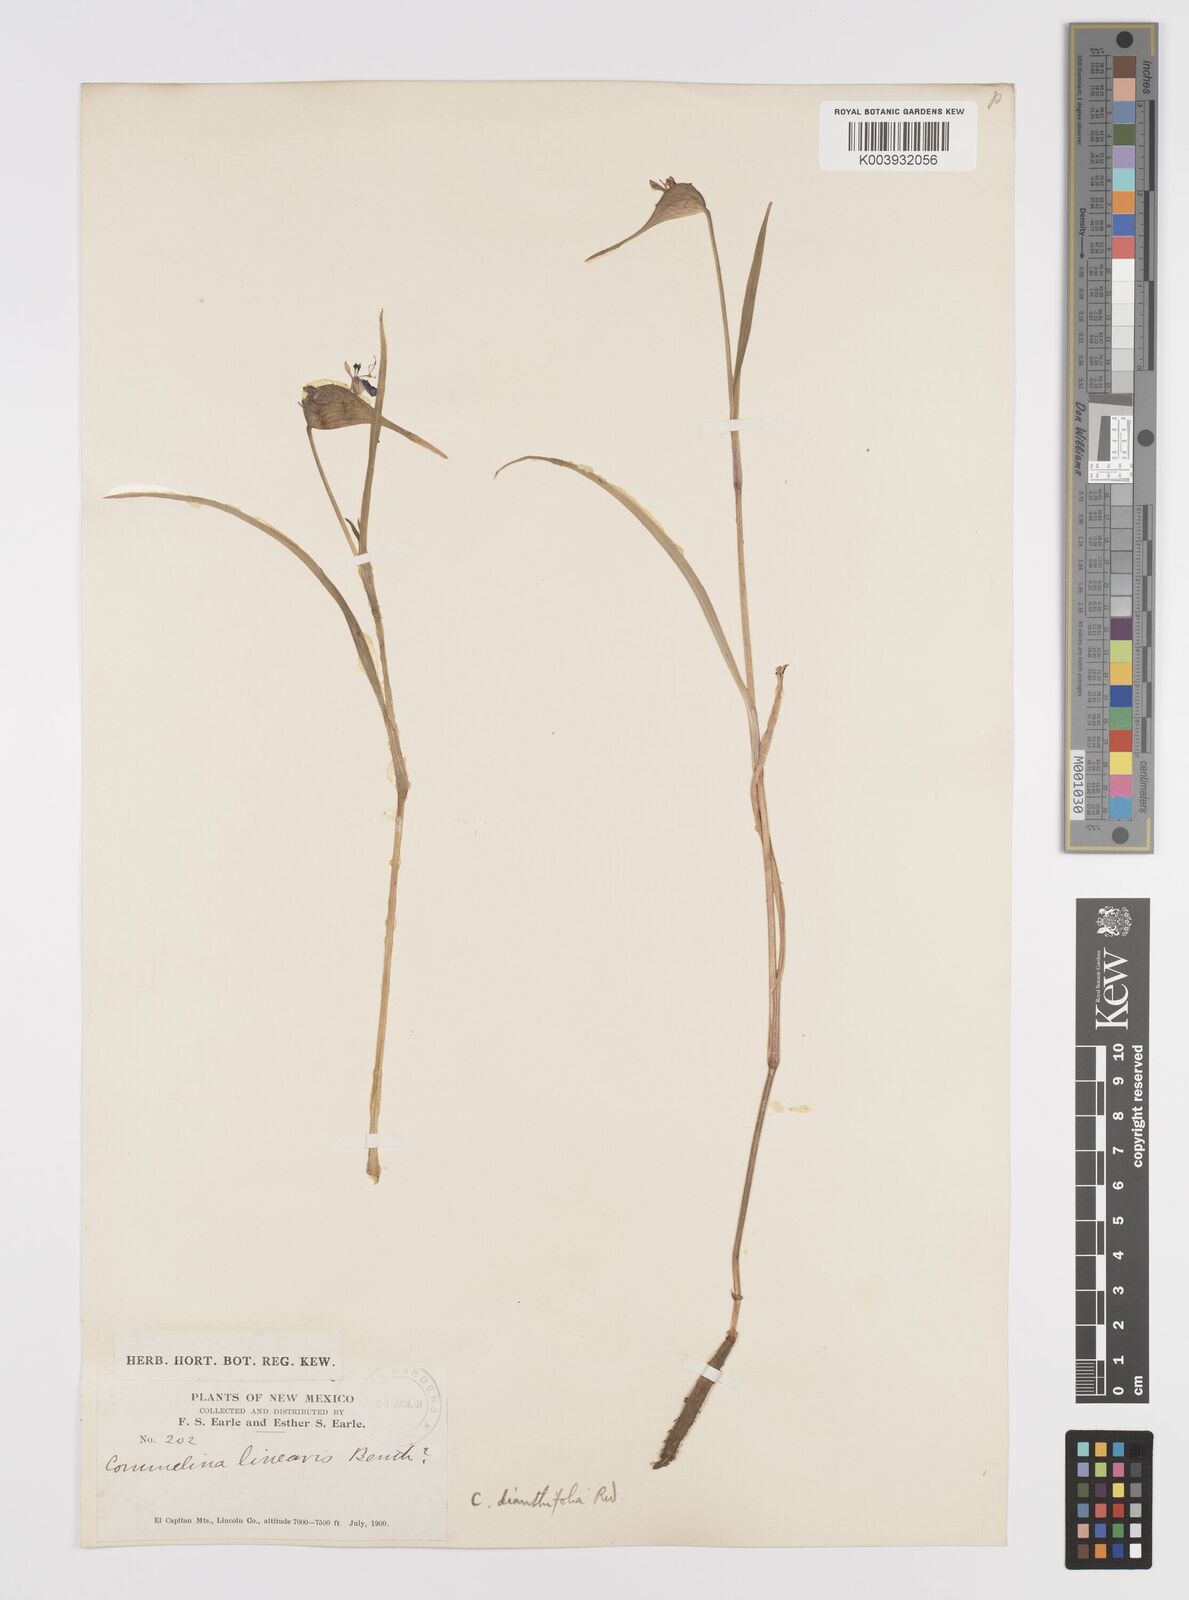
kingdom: Plantae
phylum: Tracheophyta
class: Liliopsida
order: Commelinales
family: Commelinaceae
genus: Commelina
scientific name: Commelina dianthifolia
